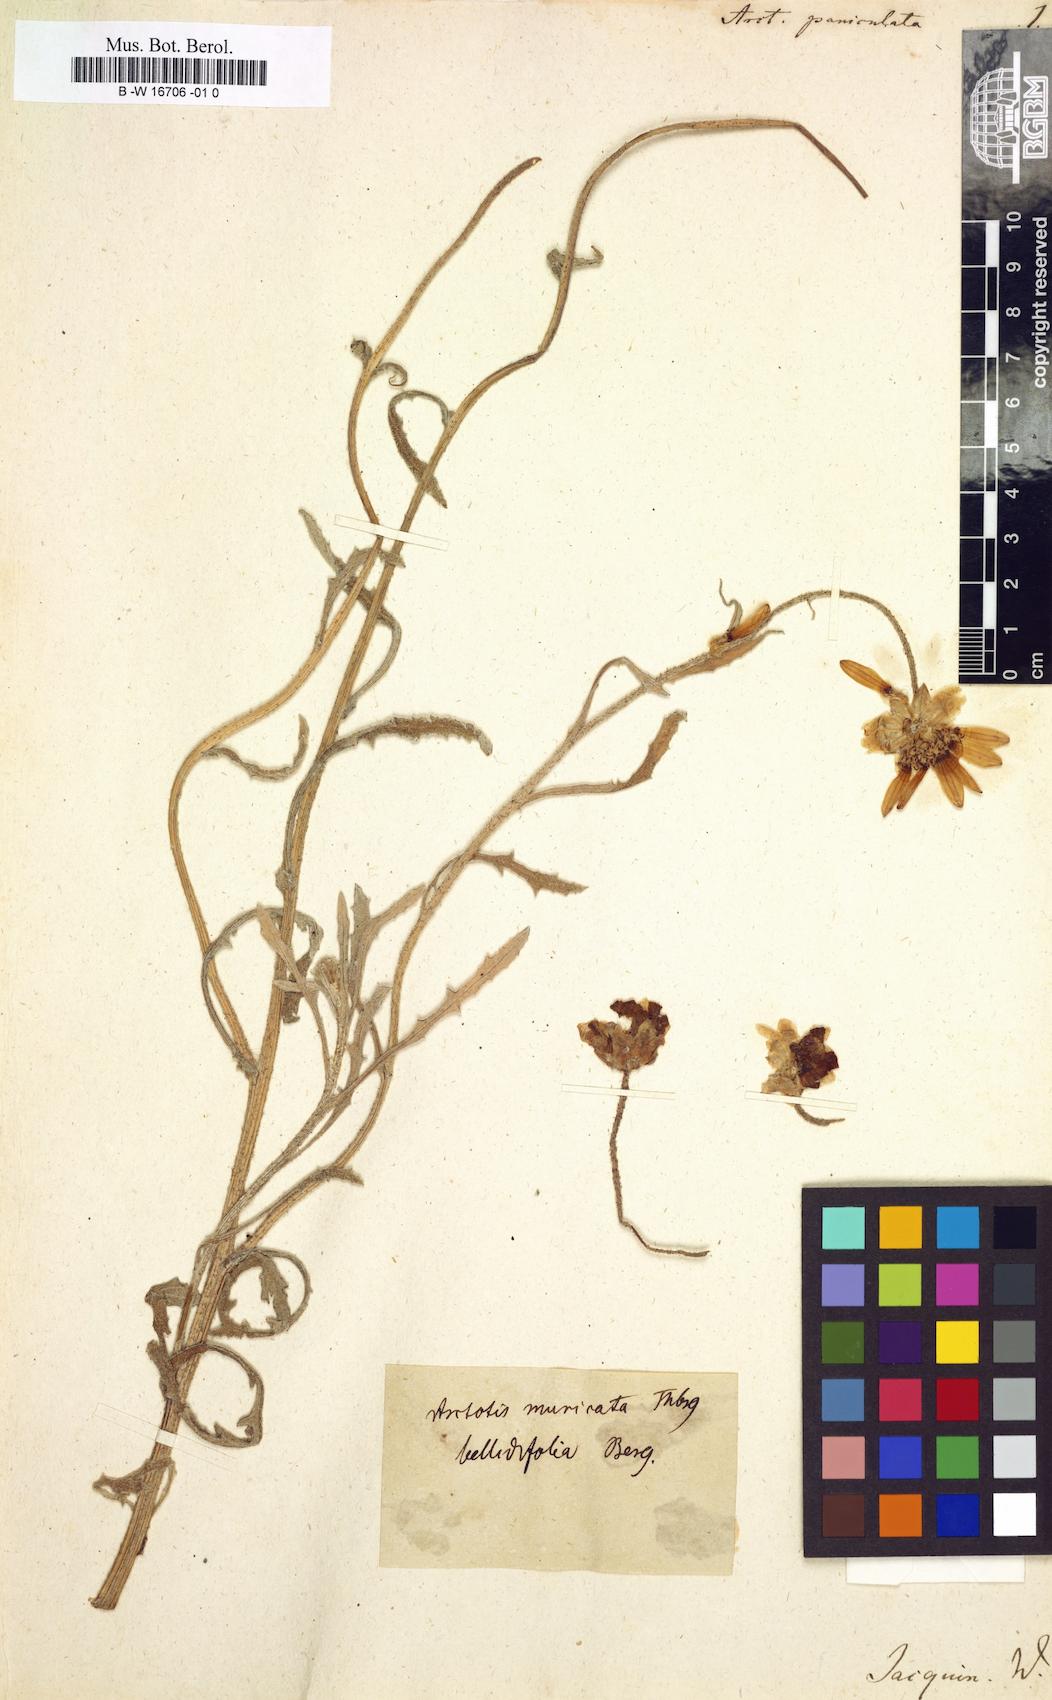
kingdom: Plantae
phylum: Tracheophyta
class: Magnoliopsida
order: Asterales
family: Asteraceae
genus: Arctotis
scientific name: Arctotis paniculata
